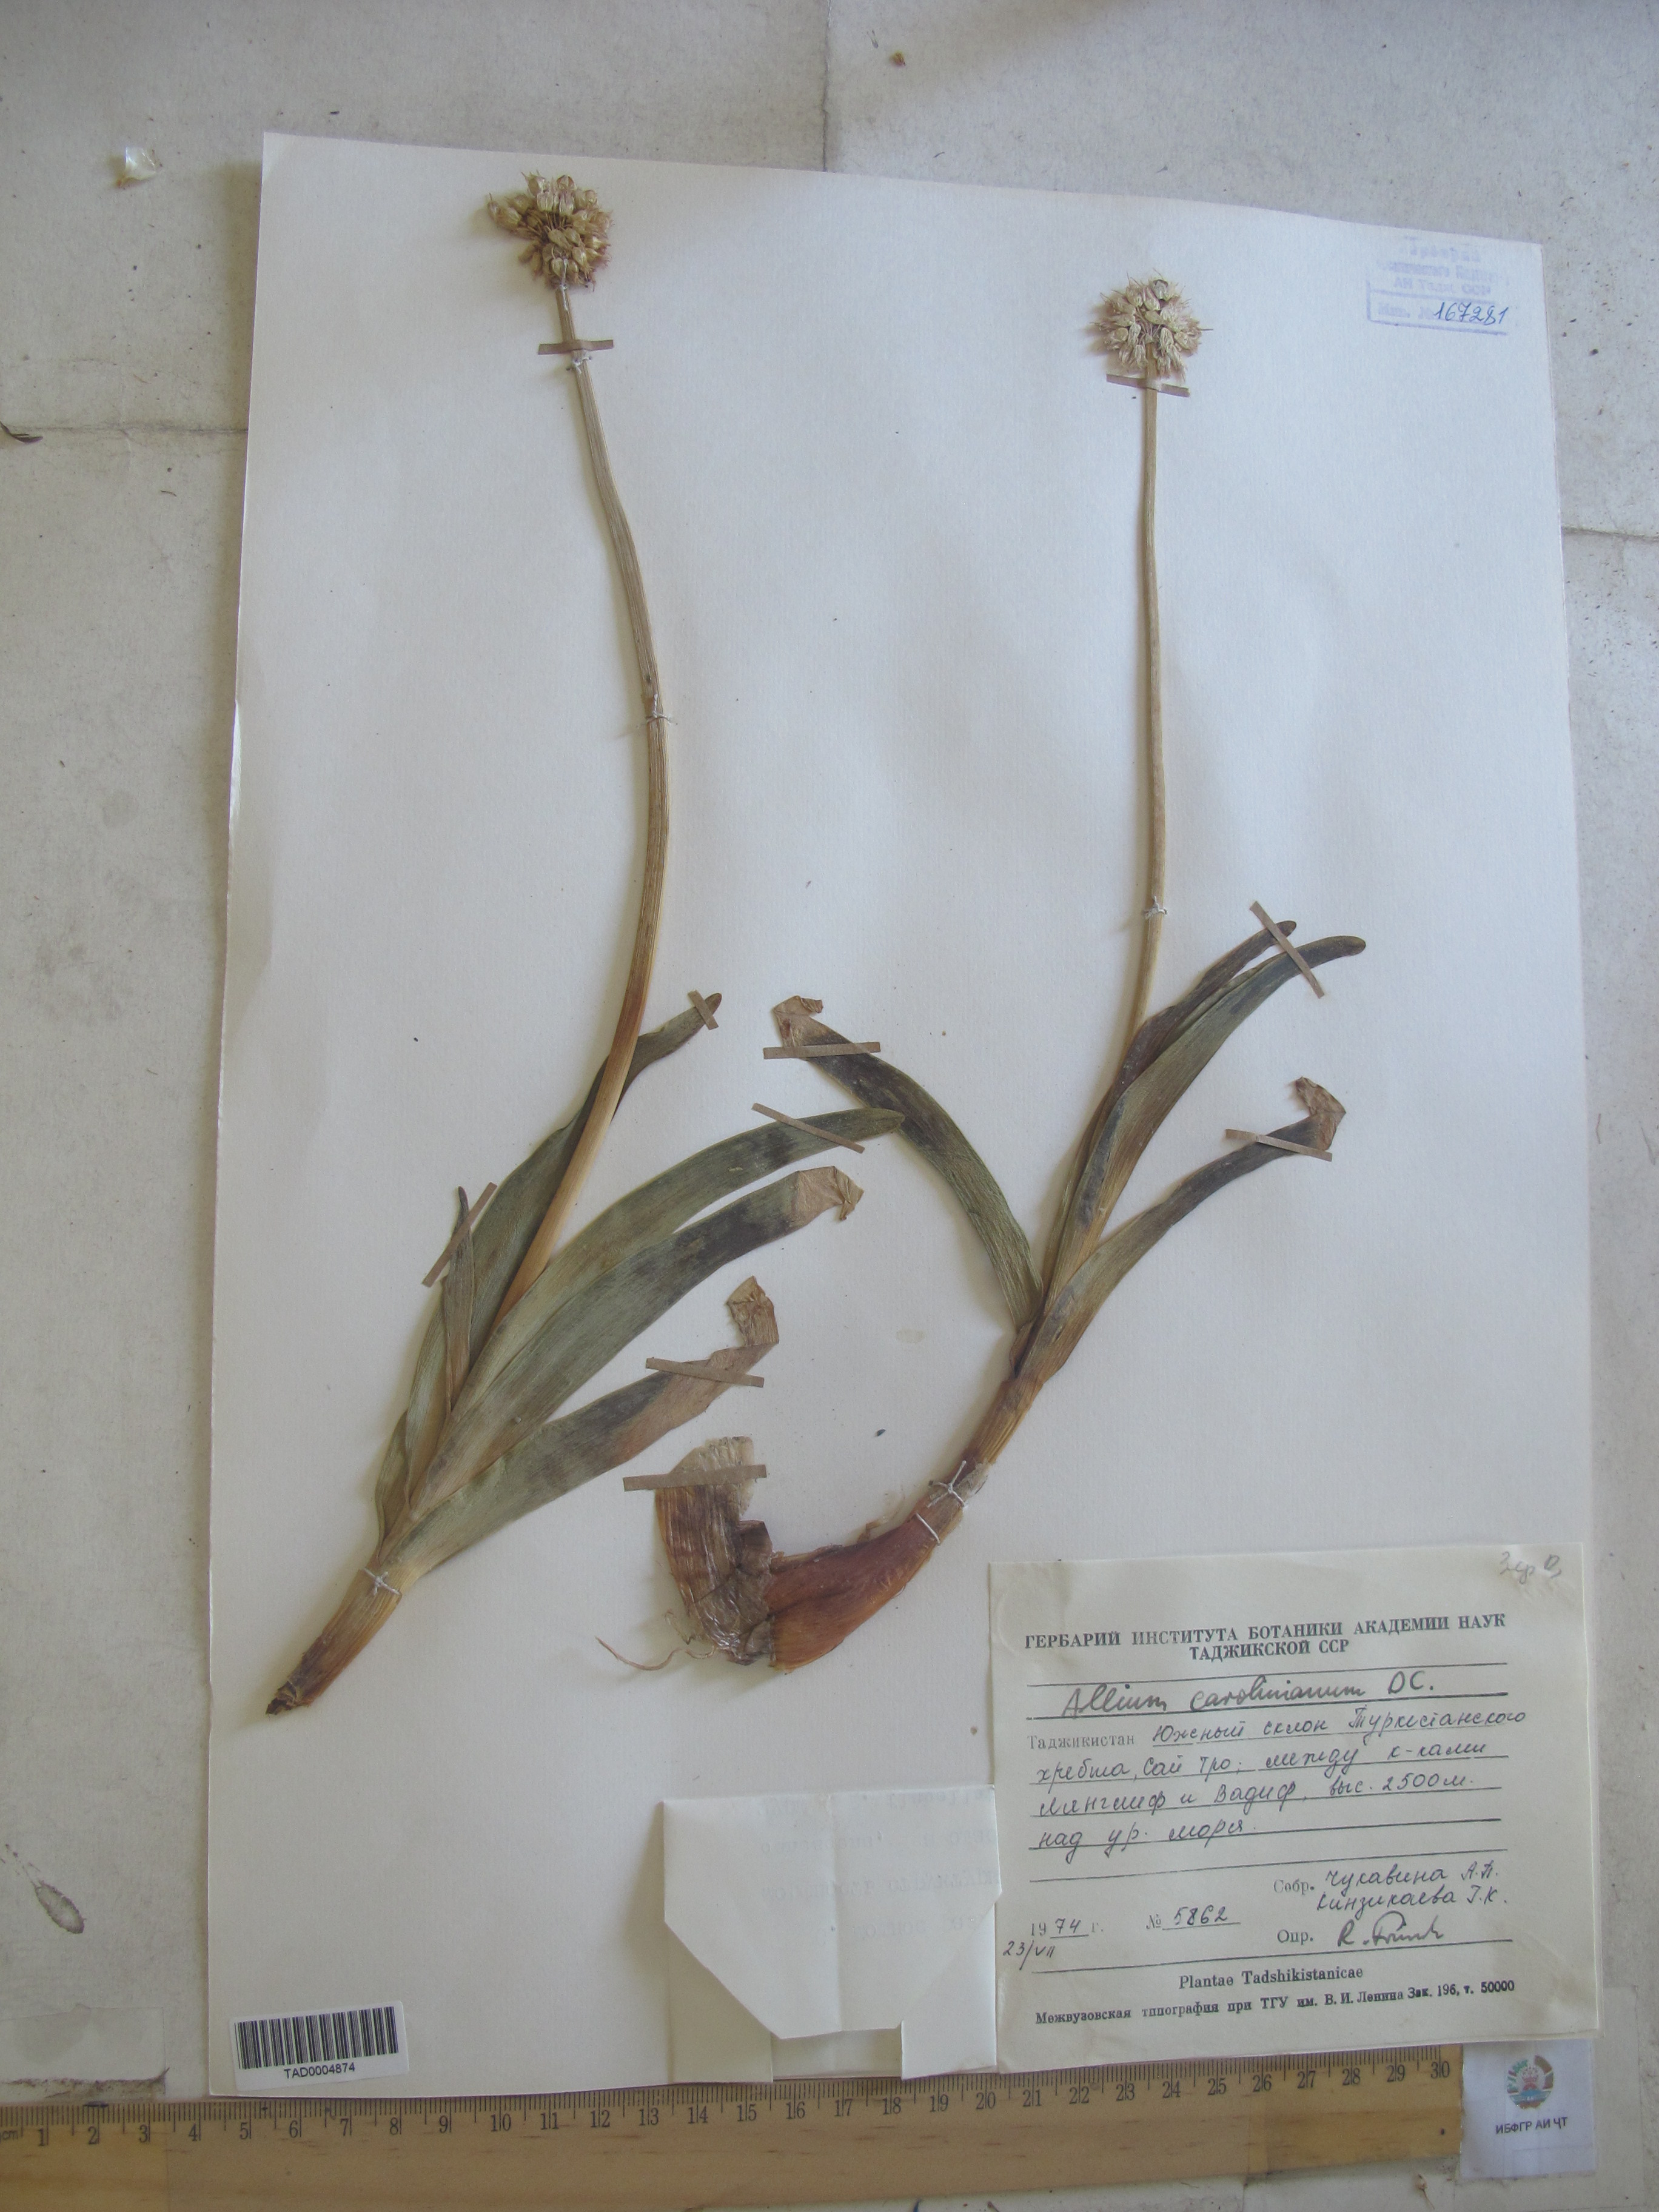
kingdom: Plantae
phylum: Tracheophyta
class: Liliopsida
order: Asparagales
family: Amaryllidaceae
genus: Allium
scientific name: Allium carolinianum
